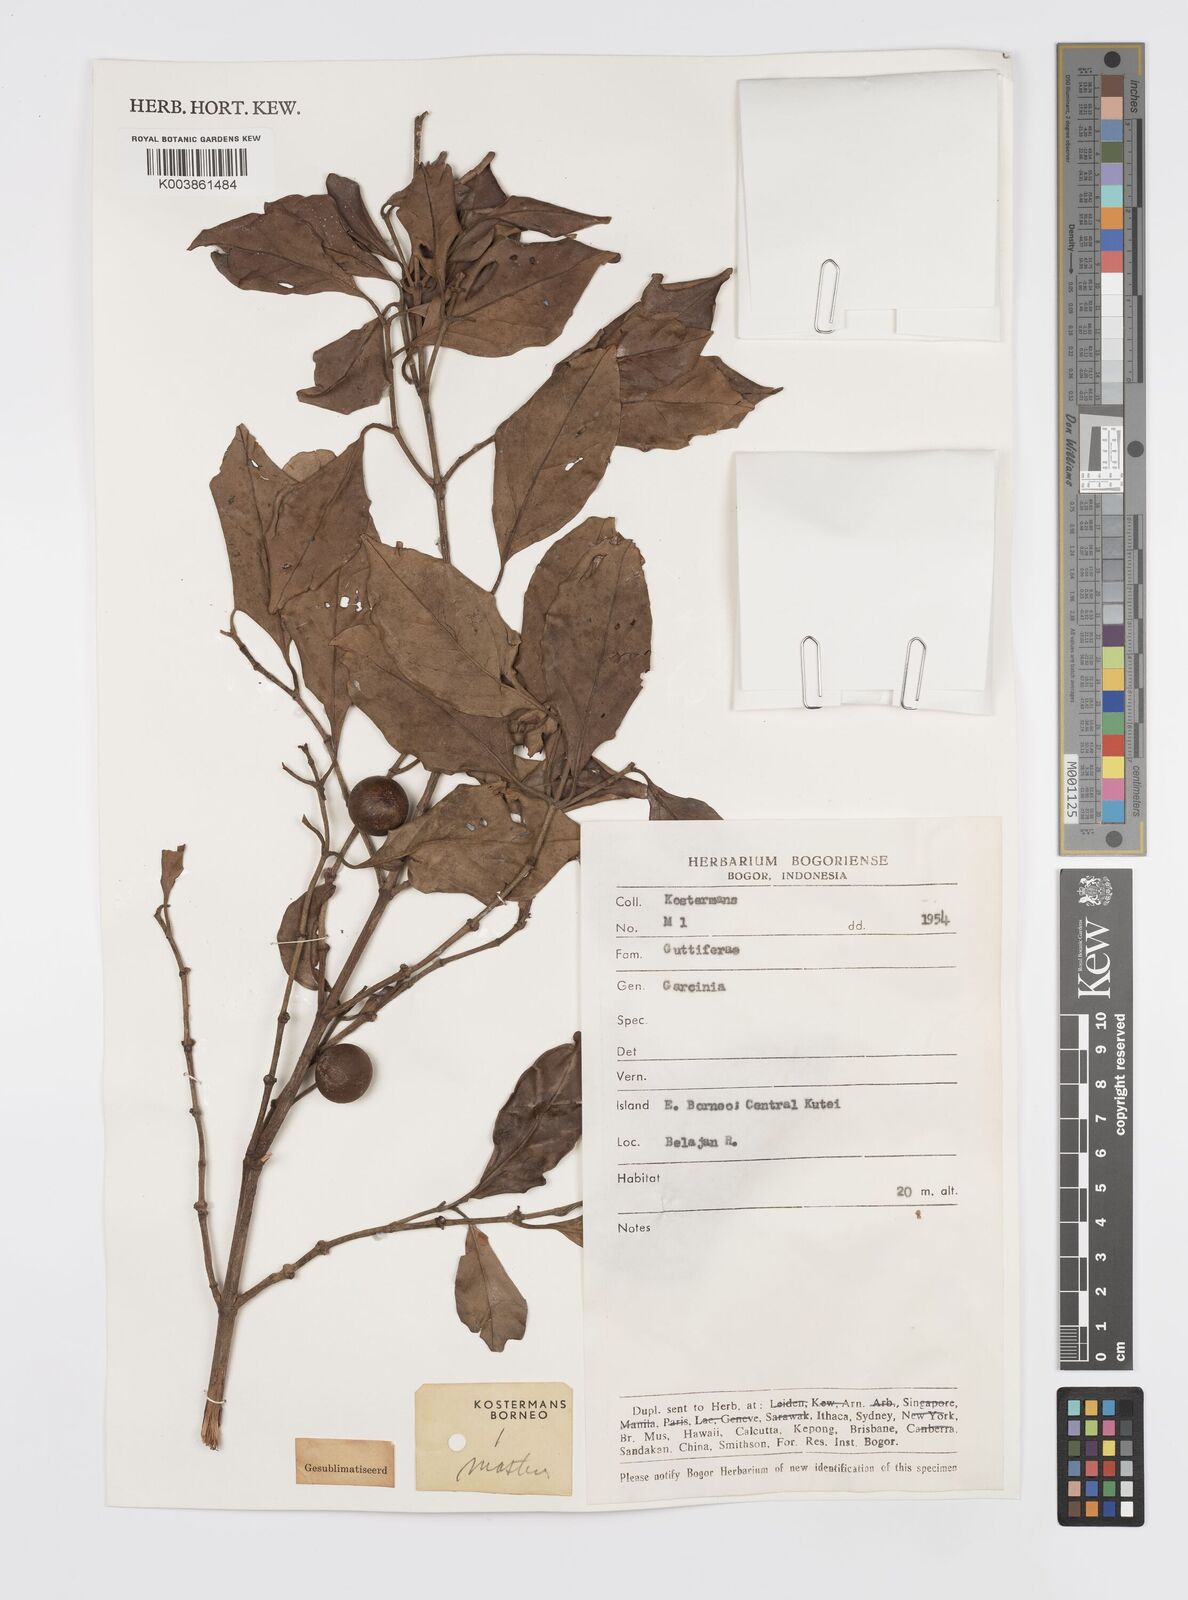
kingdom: Plantae
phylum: Tracheophyta
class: Magnoliopsida
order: Malpighiales
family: Clusiaceae
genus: Garcinia
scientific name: Garcinia
